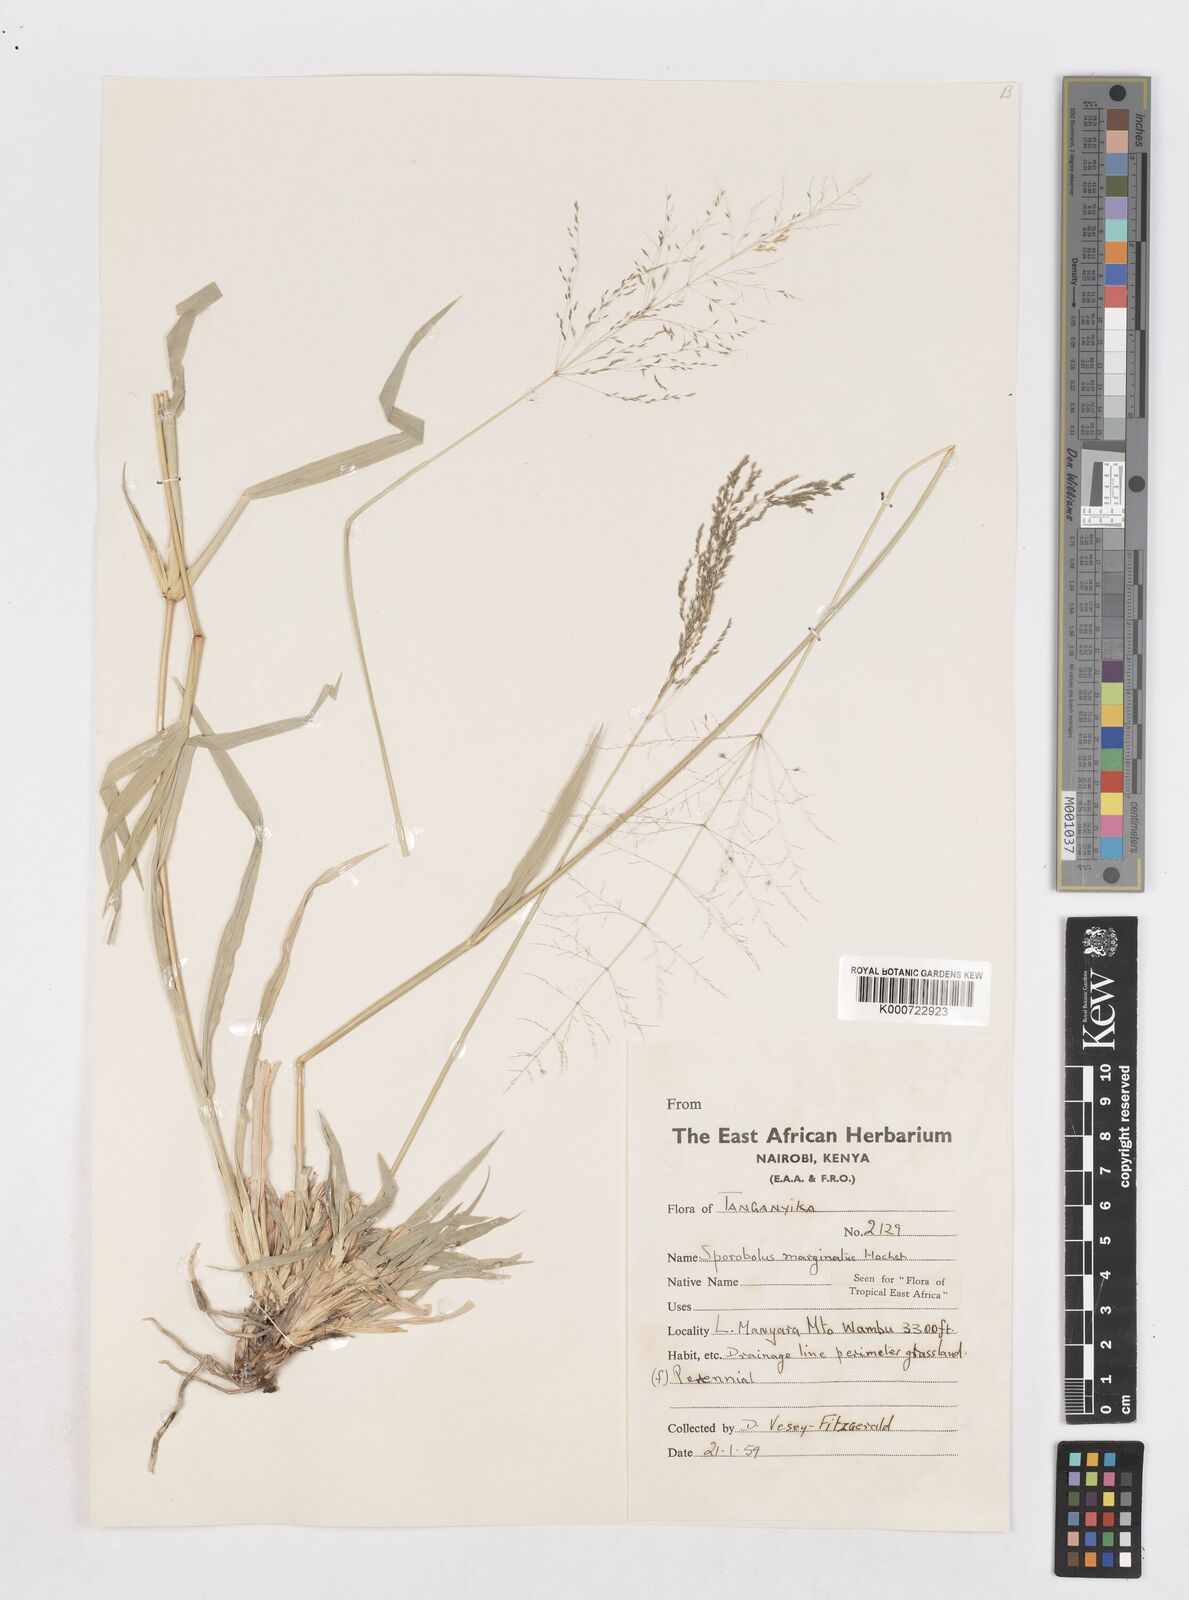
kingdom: Plantae
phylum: Tracheophyta
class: Liliopsida
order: Poales
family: Poaceae
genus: Sporobolus
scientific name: Sporobolus ioclados
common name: Pan dropseed
